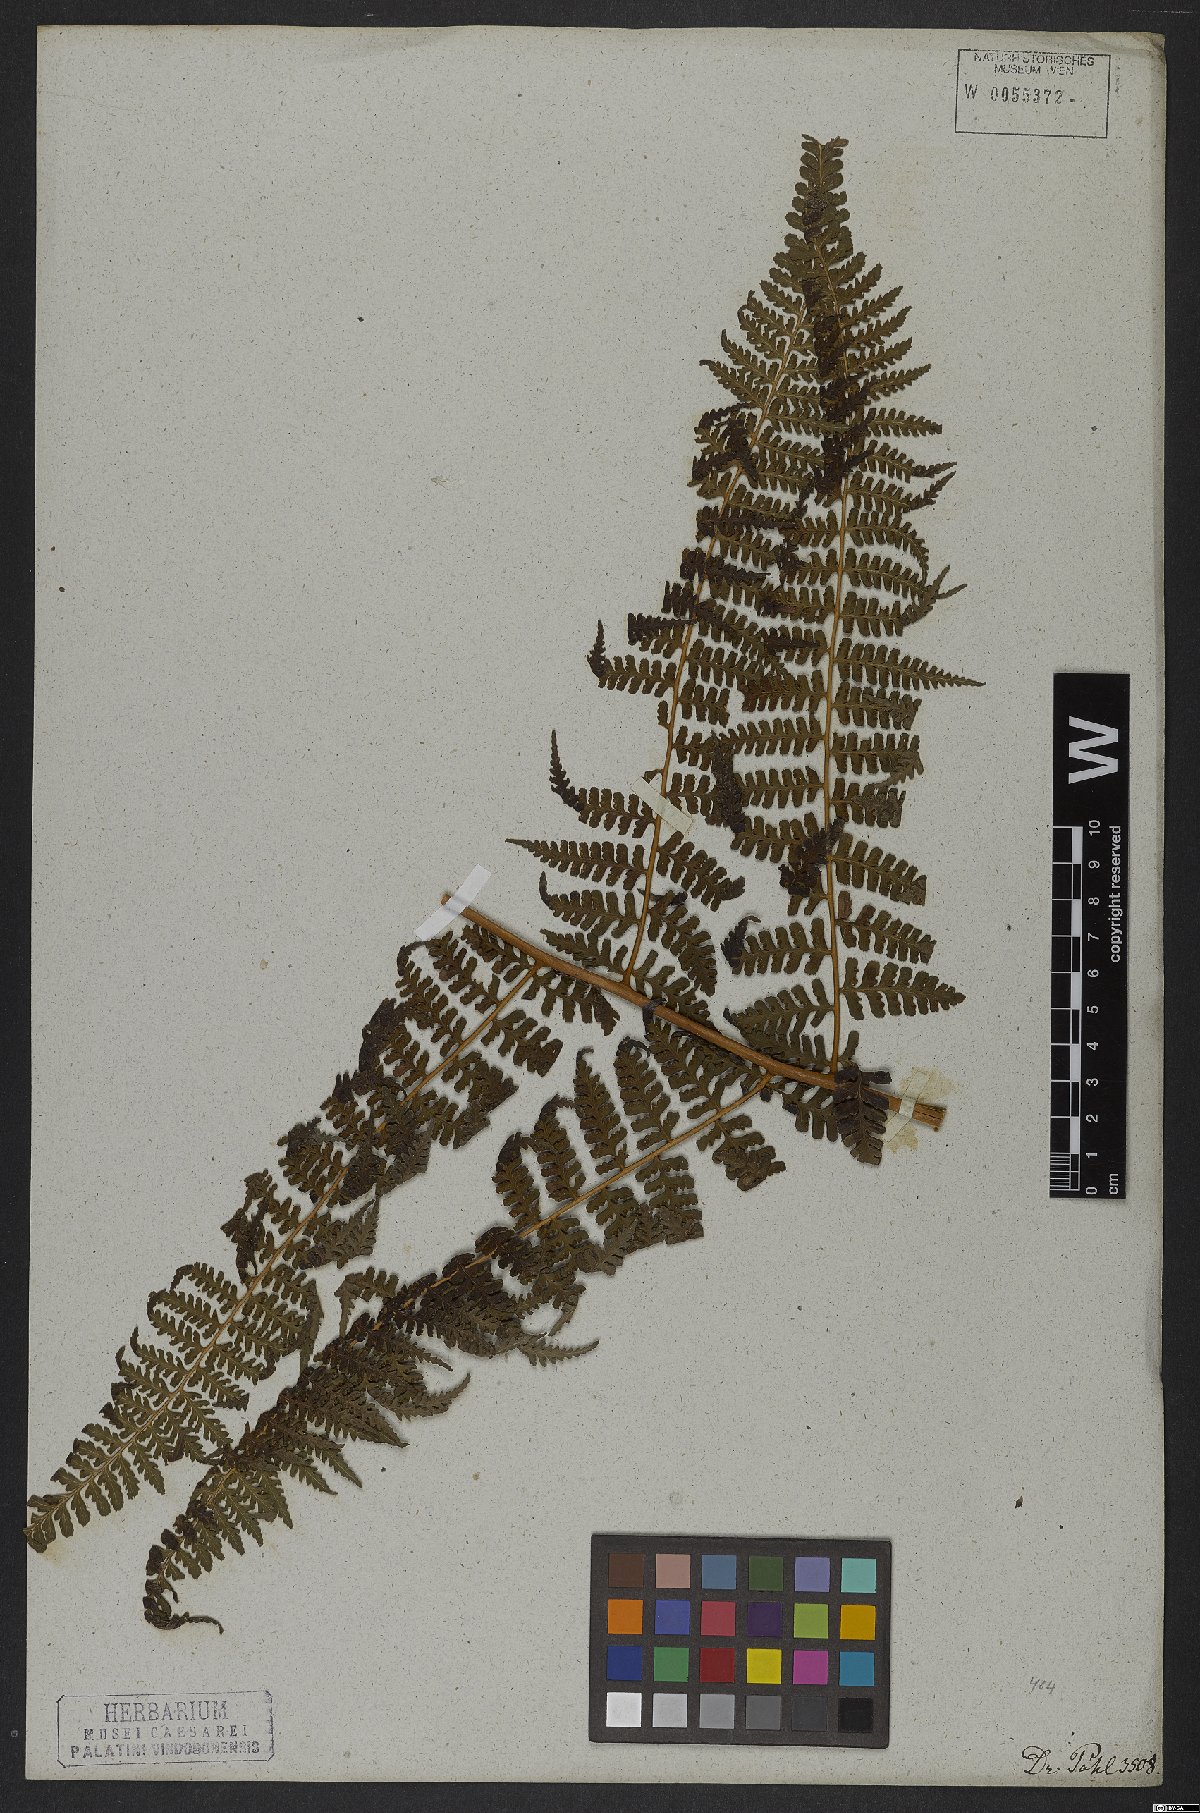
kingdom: Plantae
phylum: Tracheophyta
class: Polypodiopsida
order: Polypodiales
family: Dennstaedtiaceae
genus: Dennstaedtia
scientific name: Dennstaedtia dissecta
